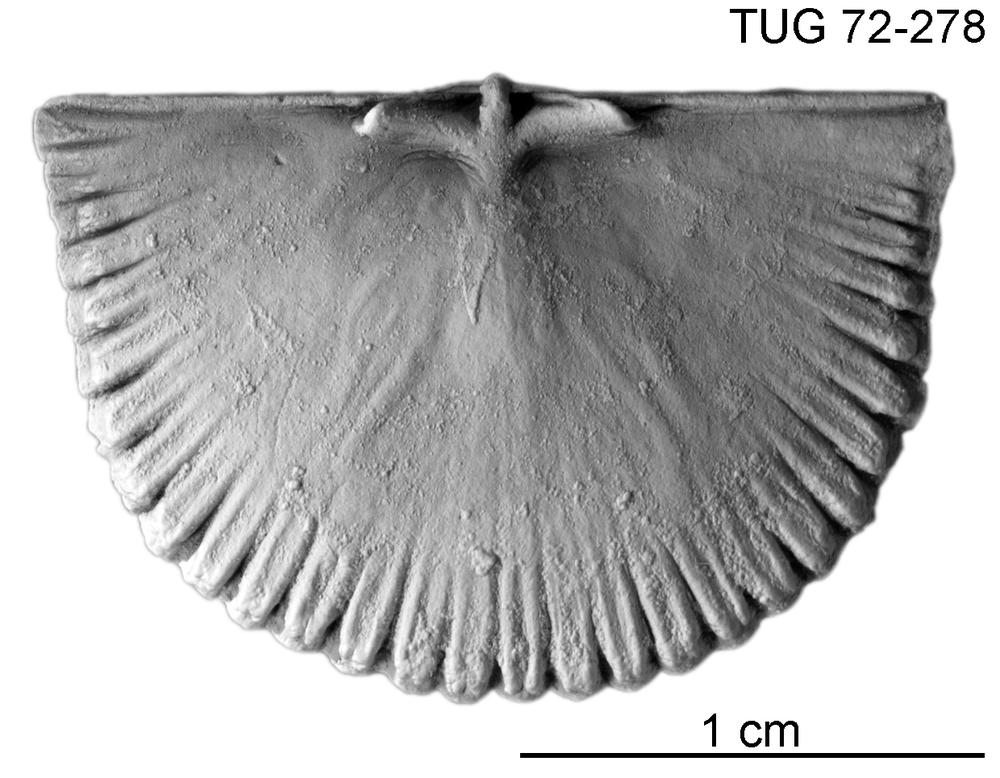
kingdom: Animalia
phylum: Brachiopoda
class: Rhynchonellata
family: Orthidae
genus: Cyrtonotella
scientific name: Cyrtonotella Orthis kuckersiana
